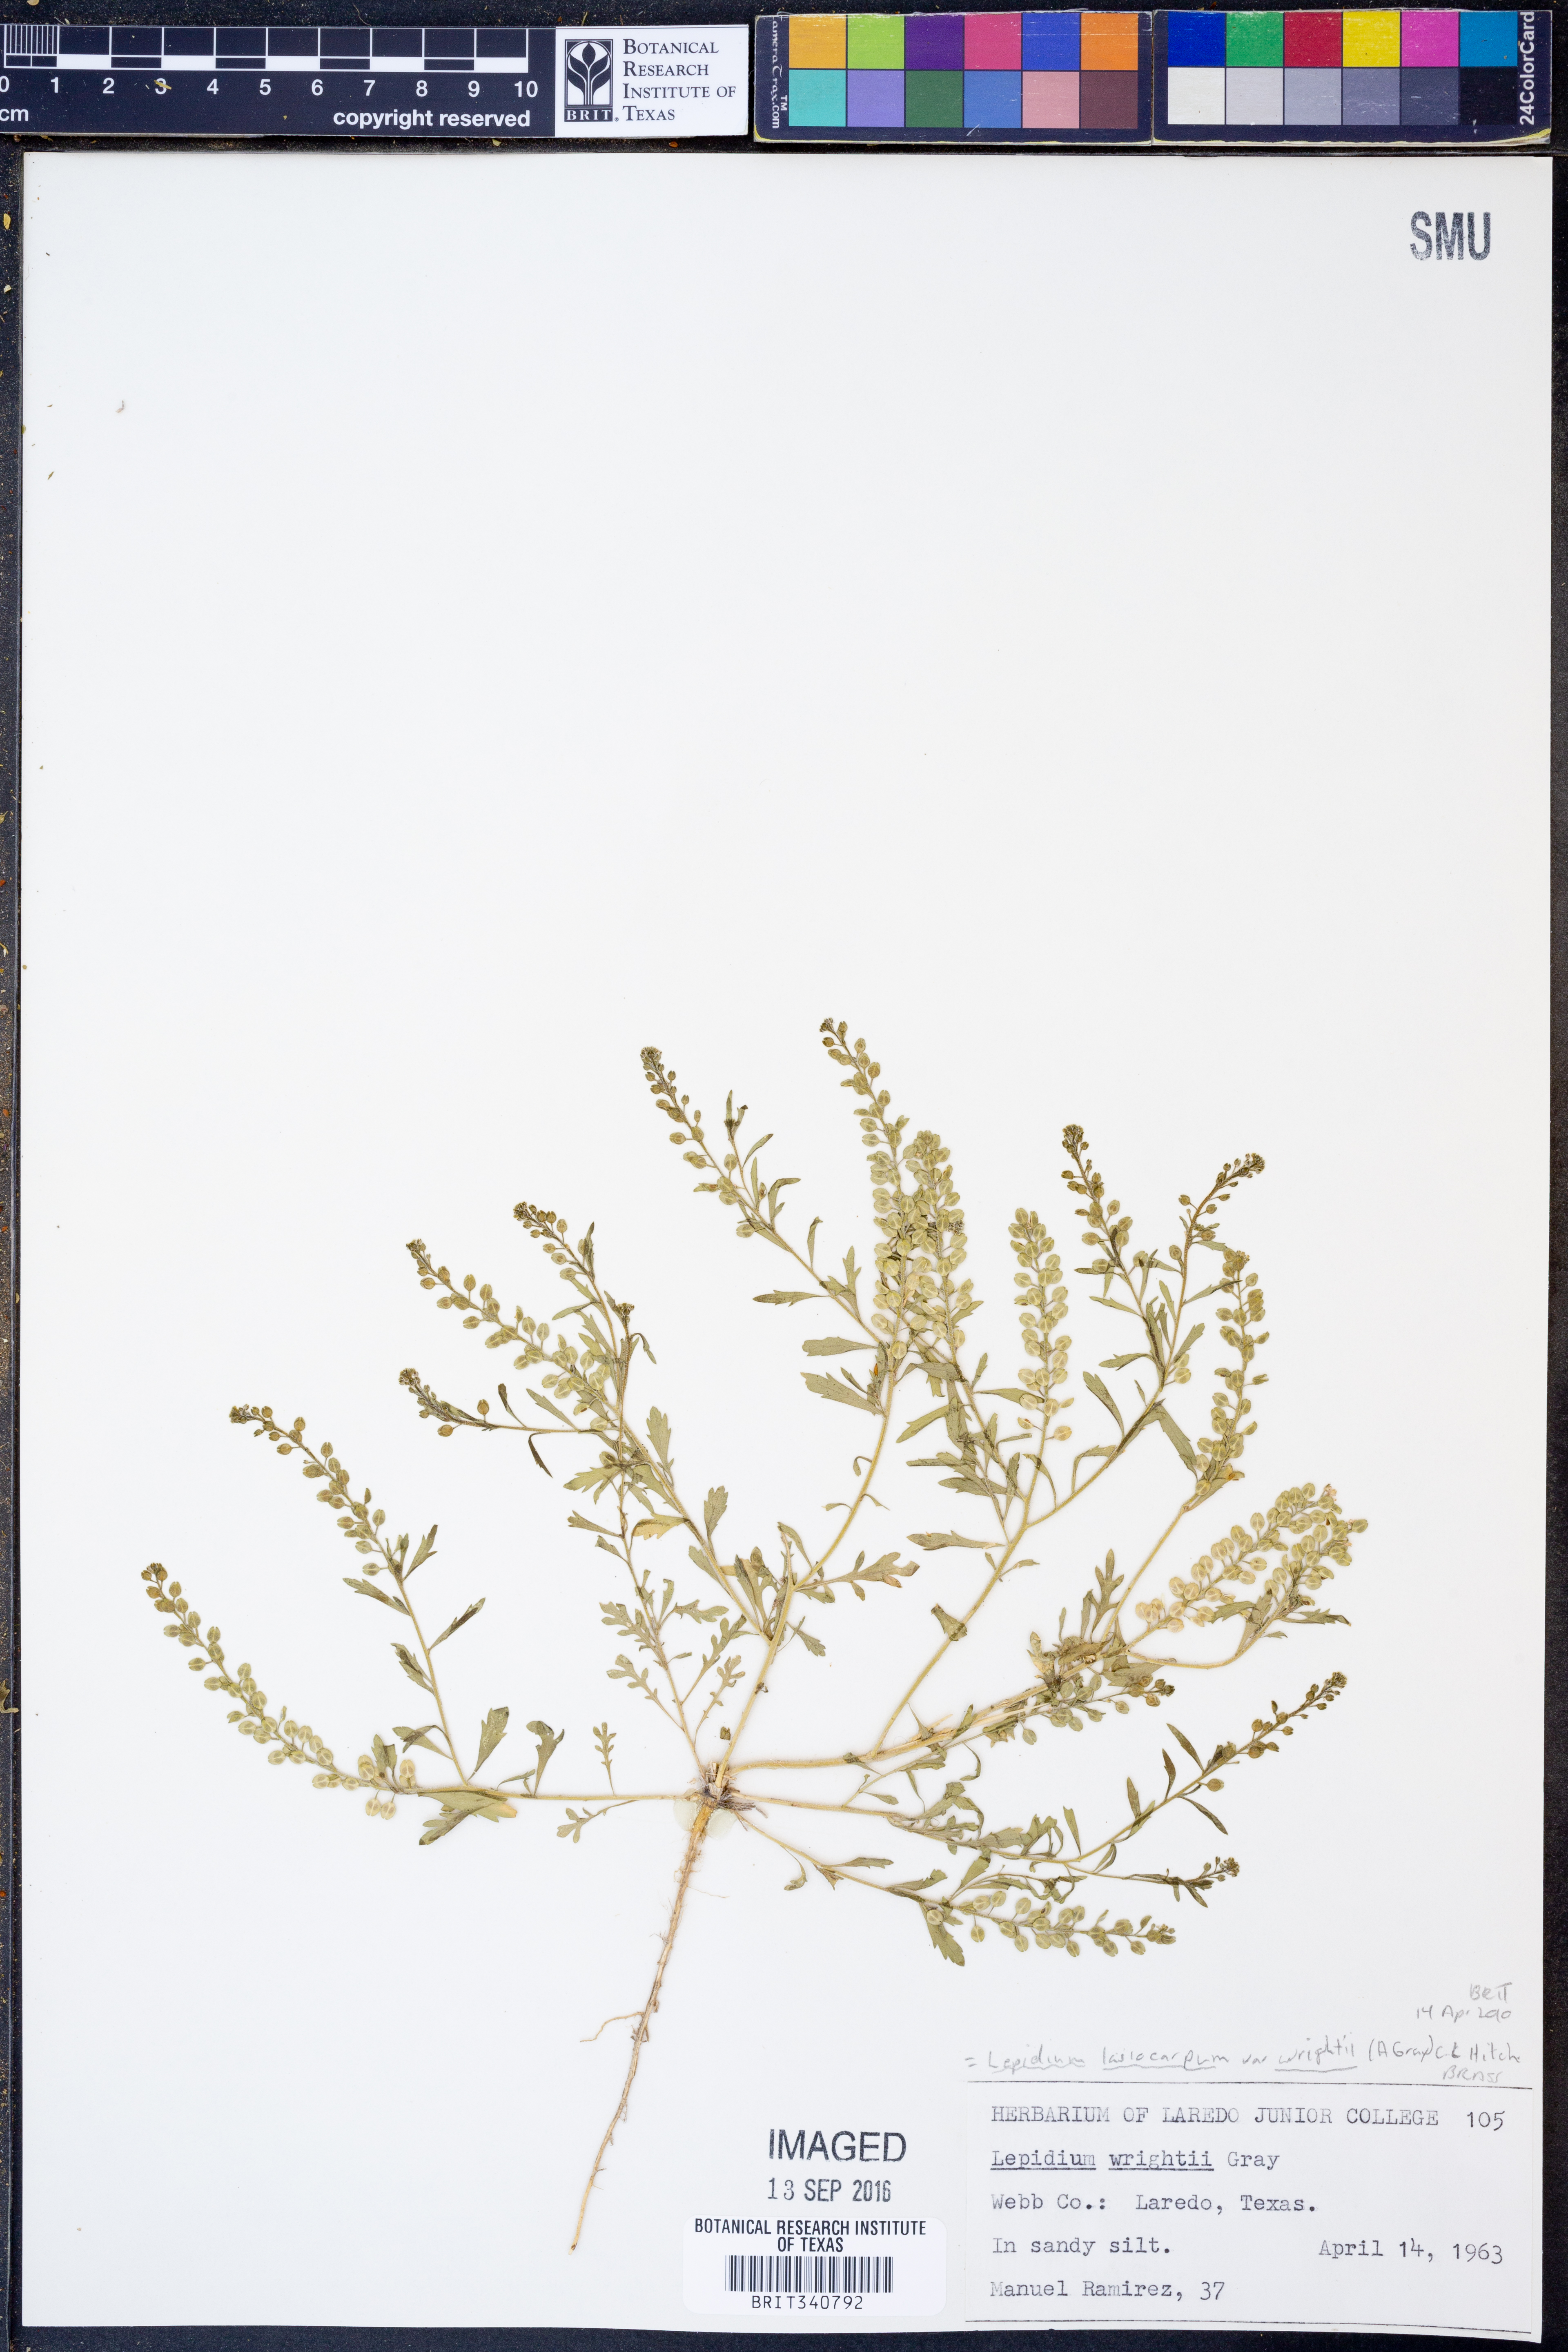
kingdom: Plantae
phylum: Tracheophyta
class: Magnoliopsida
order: Brassicales
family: Brassicaceae
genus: Lepidium
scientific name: Lepidium lasiocarpum
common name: Hairy-pod pepperwort
